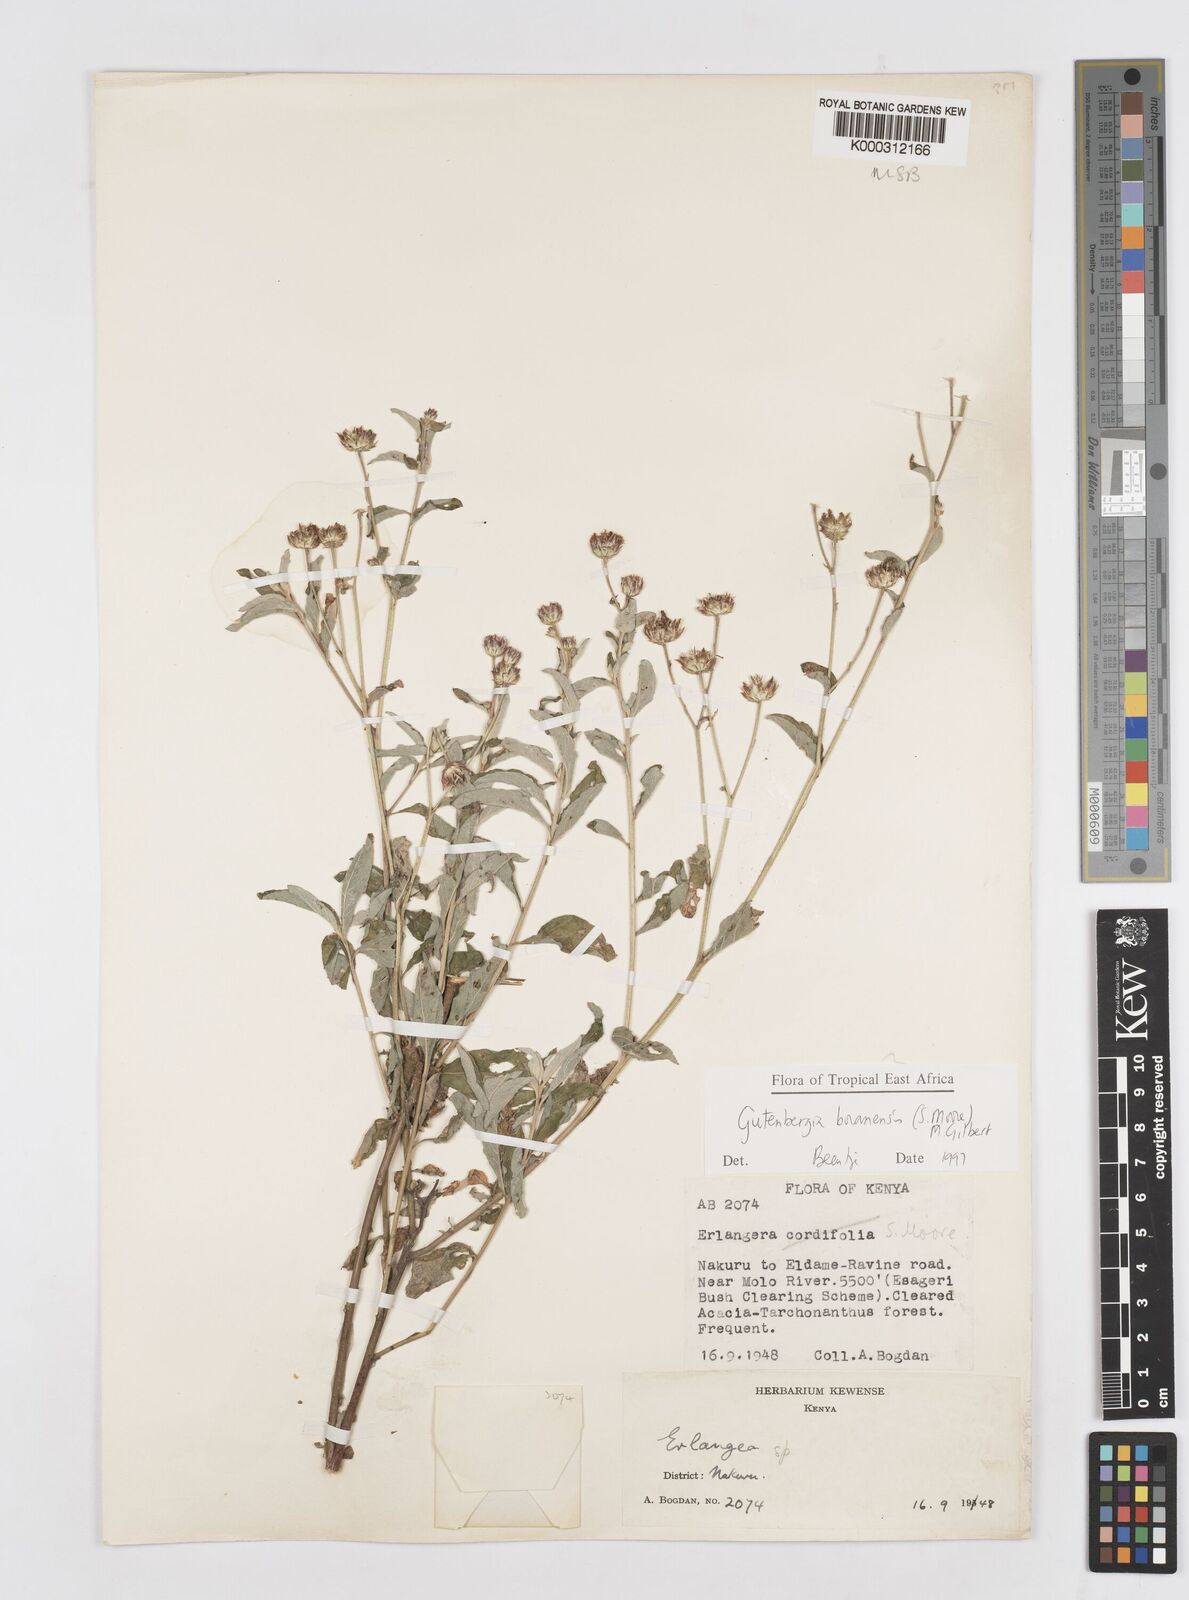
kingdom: Plantae
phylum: Tracheophyta
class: Magnoliopsida
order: Asterales
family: Asteraceae
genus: Gutenbergia
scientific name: Gutenbergia boranensis
